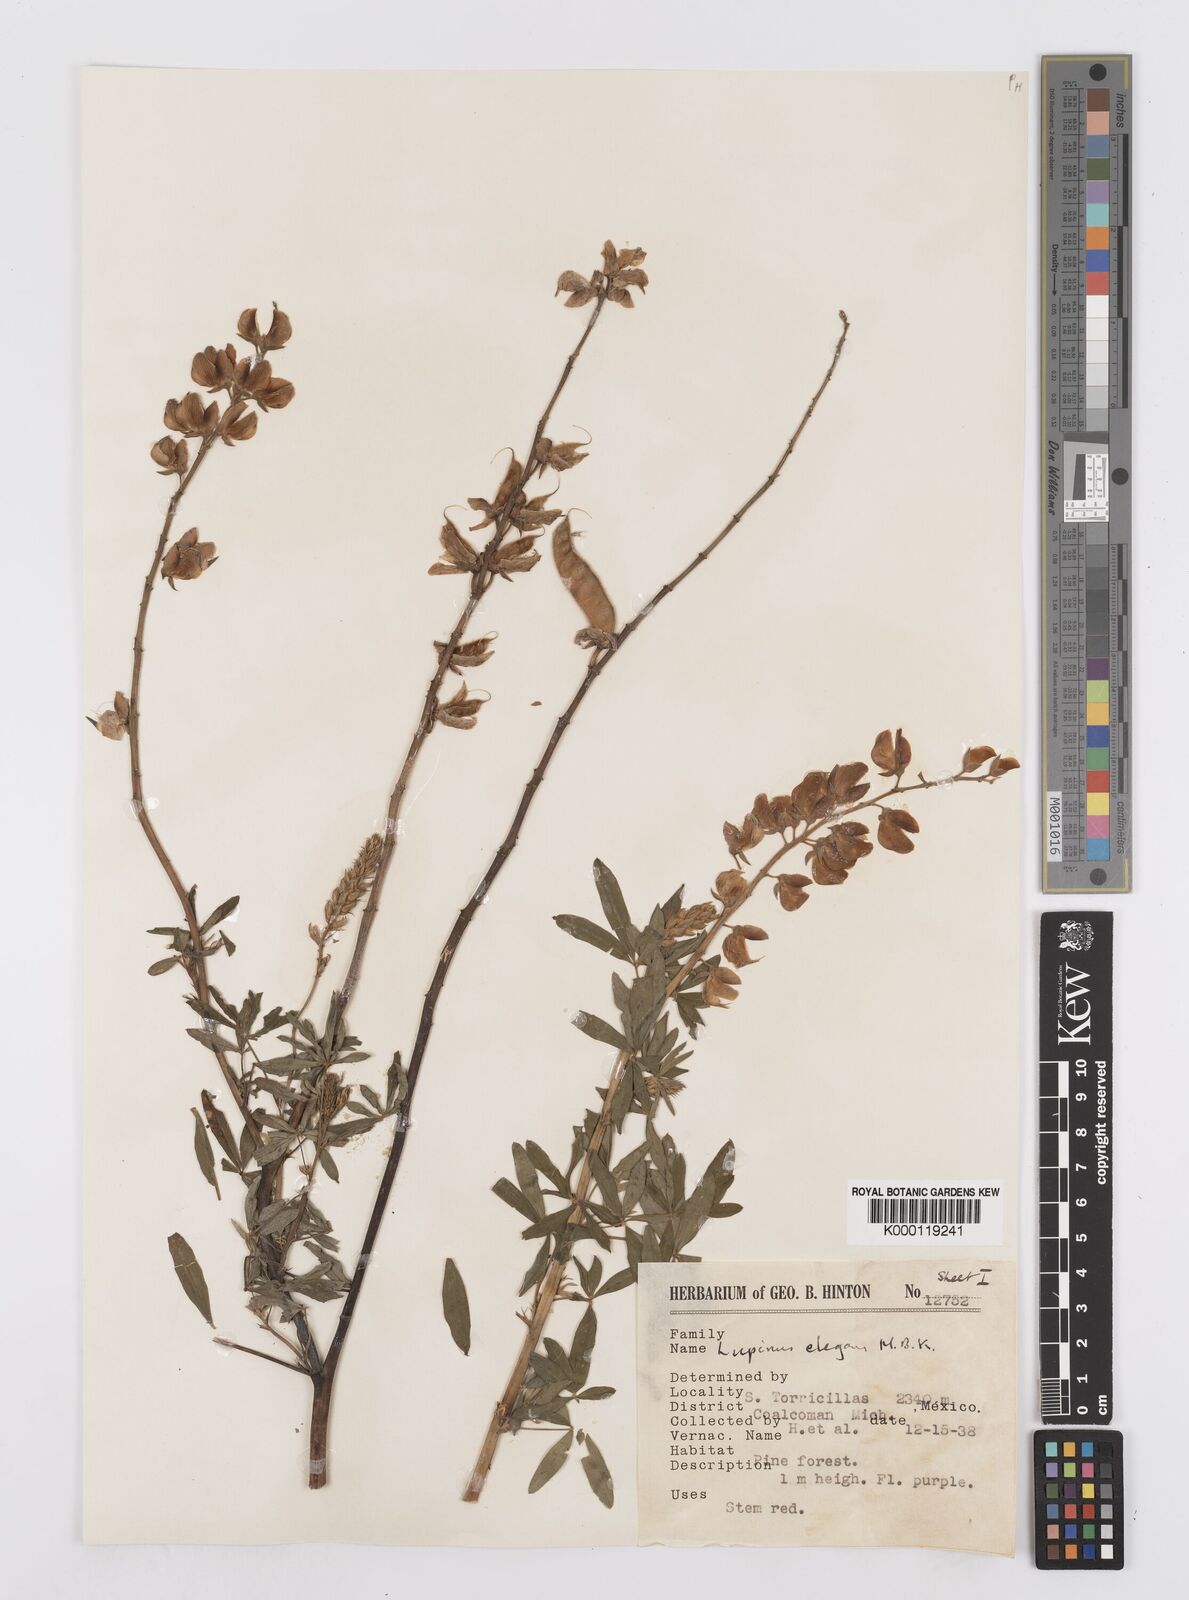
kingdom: Plantae
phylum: Tracheophyta
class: Magnoliopsida
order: Fabales
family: Fabaceae
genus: Lupinus
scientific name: Lupinus elegans
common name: Mexican lupine
